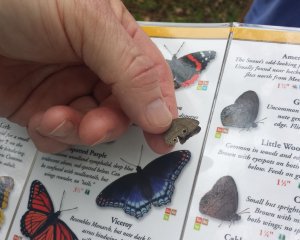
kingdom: Animalia
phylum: Arthropoda
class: Insecta
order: Lepidoptera
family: Nymphalidae
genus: Hermeuptychia
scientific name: Hermeuptychia hermes
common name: Carolina Satyr
